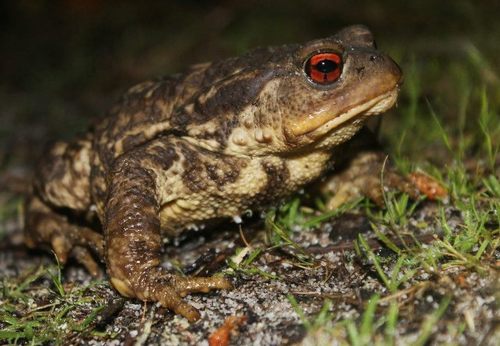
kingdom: Animalia
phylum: Chordata
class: Amphibia
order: Anura
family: Bufonidae
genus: Bufo
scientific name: Bufo spinosus
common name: Western common toad
